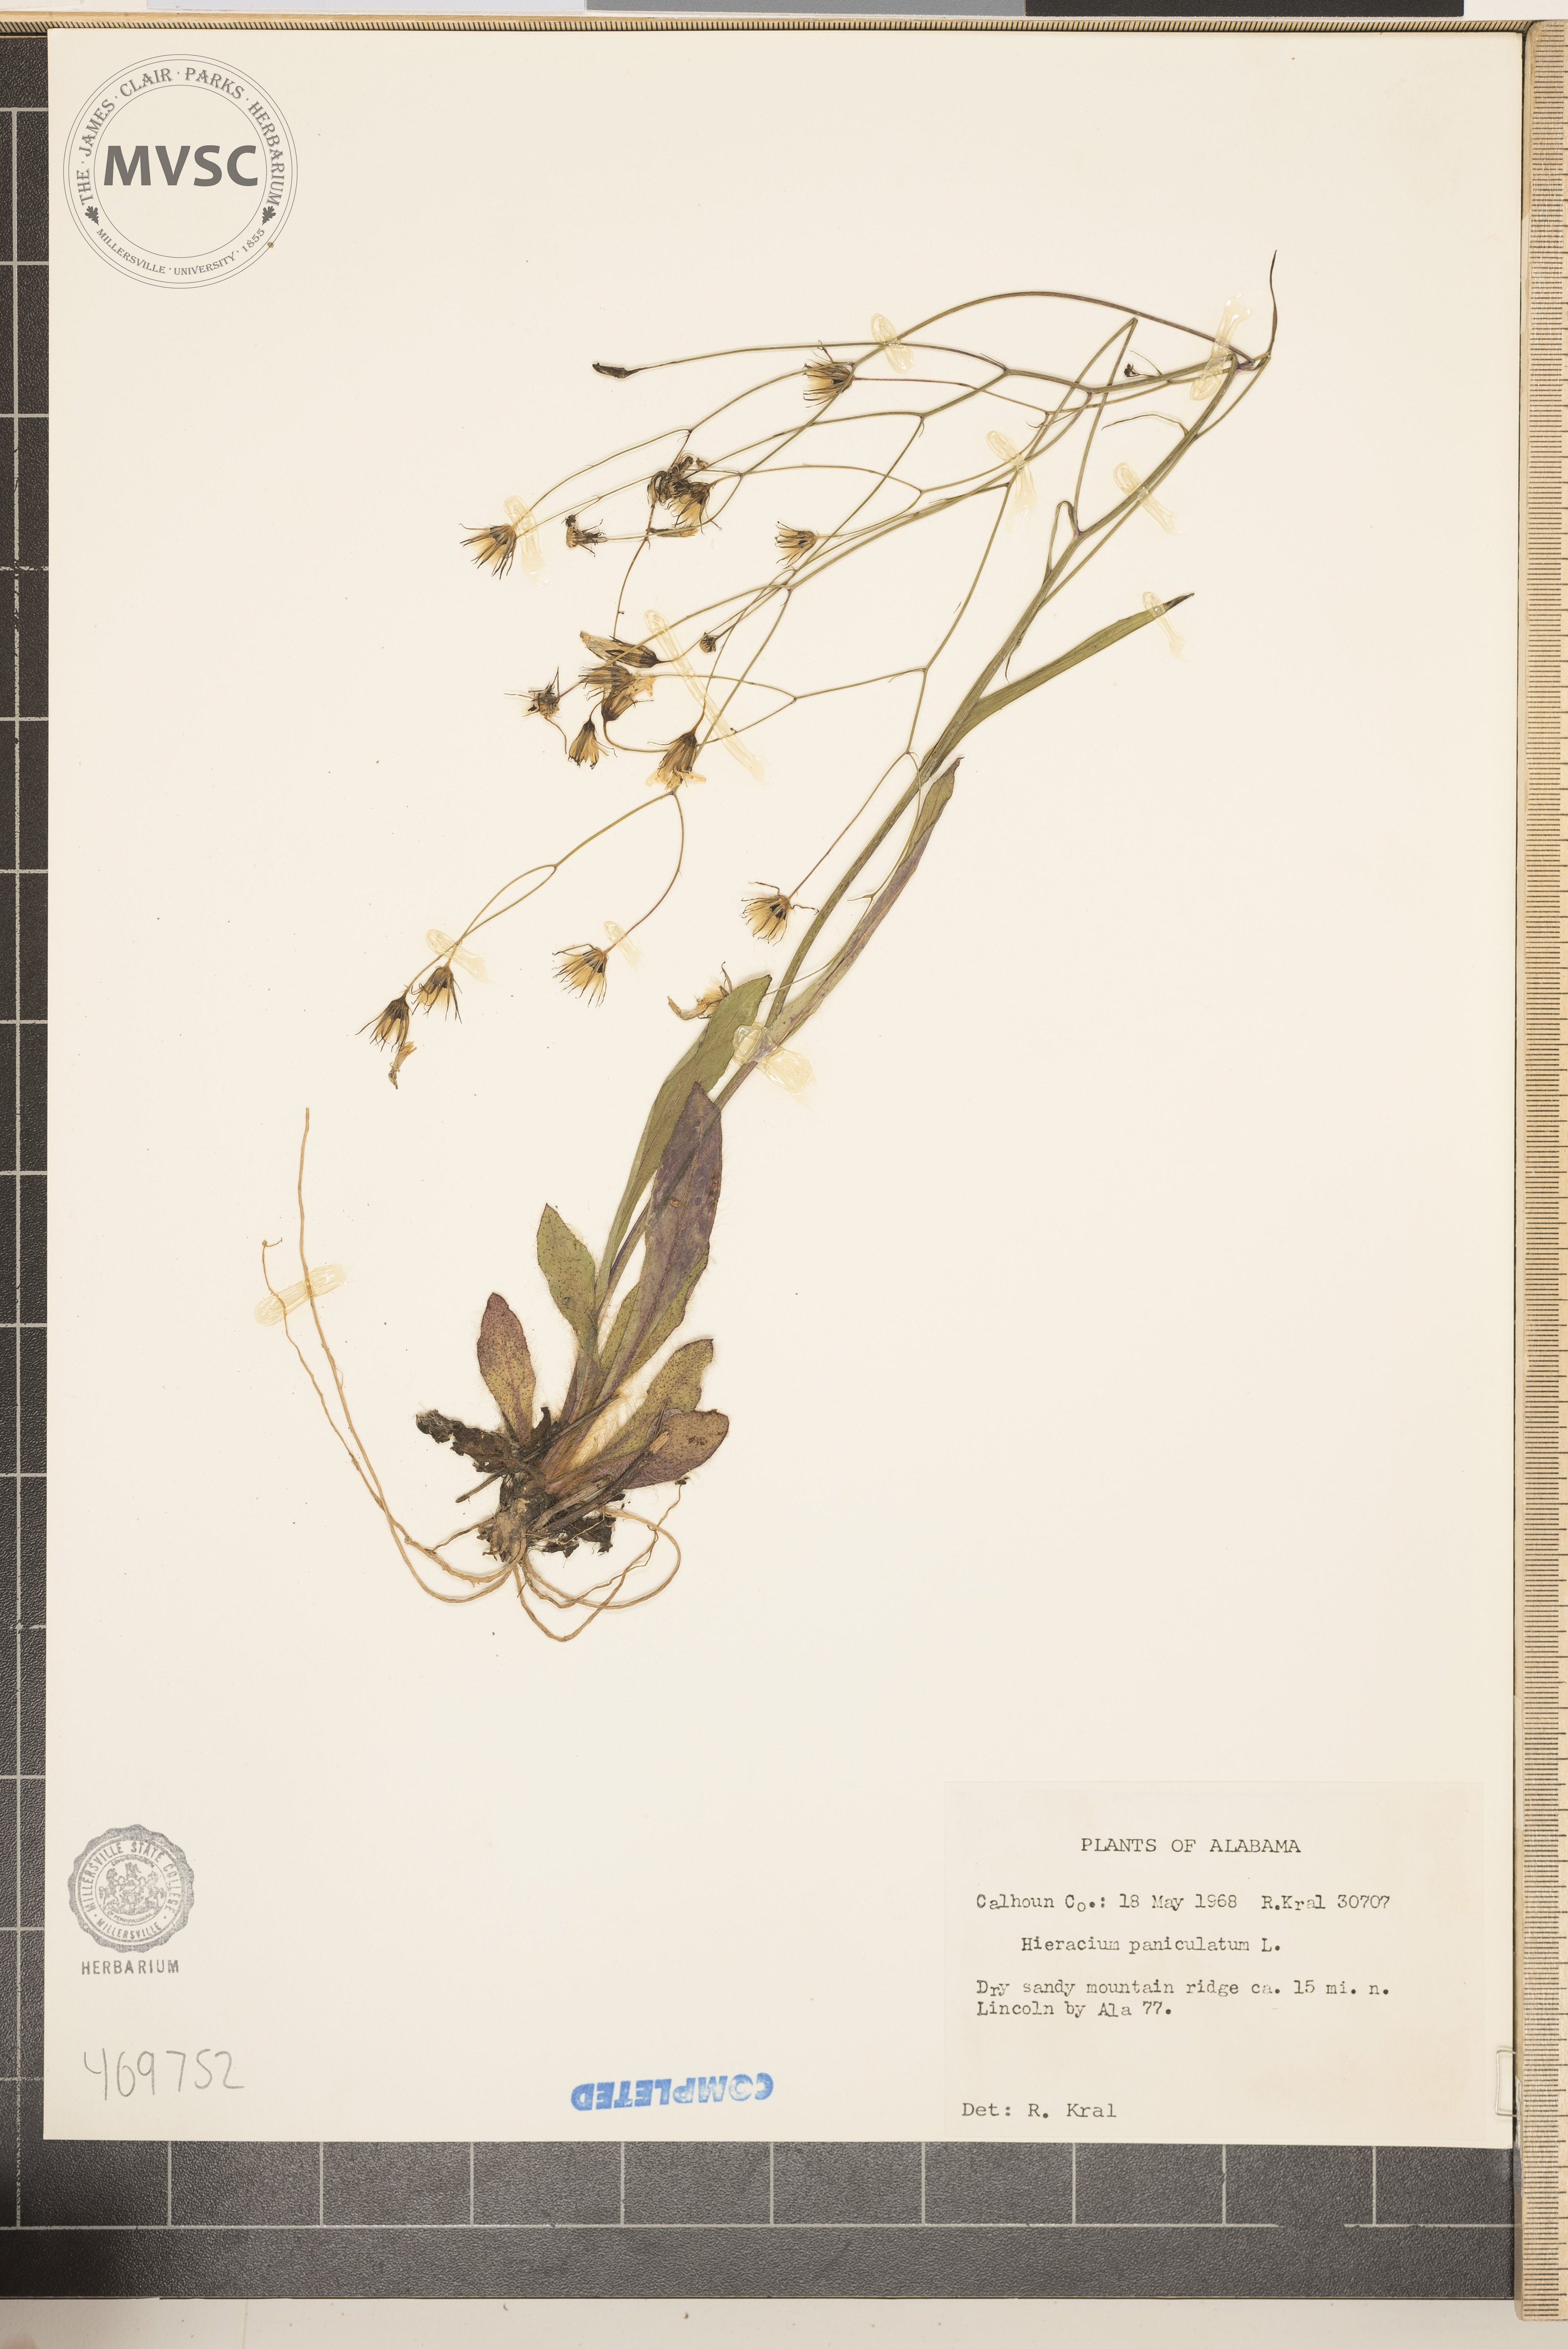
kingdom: Plantae
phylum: Tracheophyta
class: Magnoliopsida
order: Asterales
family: Asteraceae
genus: Hieracium
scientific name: Hieracium paniculatum
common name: Allegheny hawkweed
